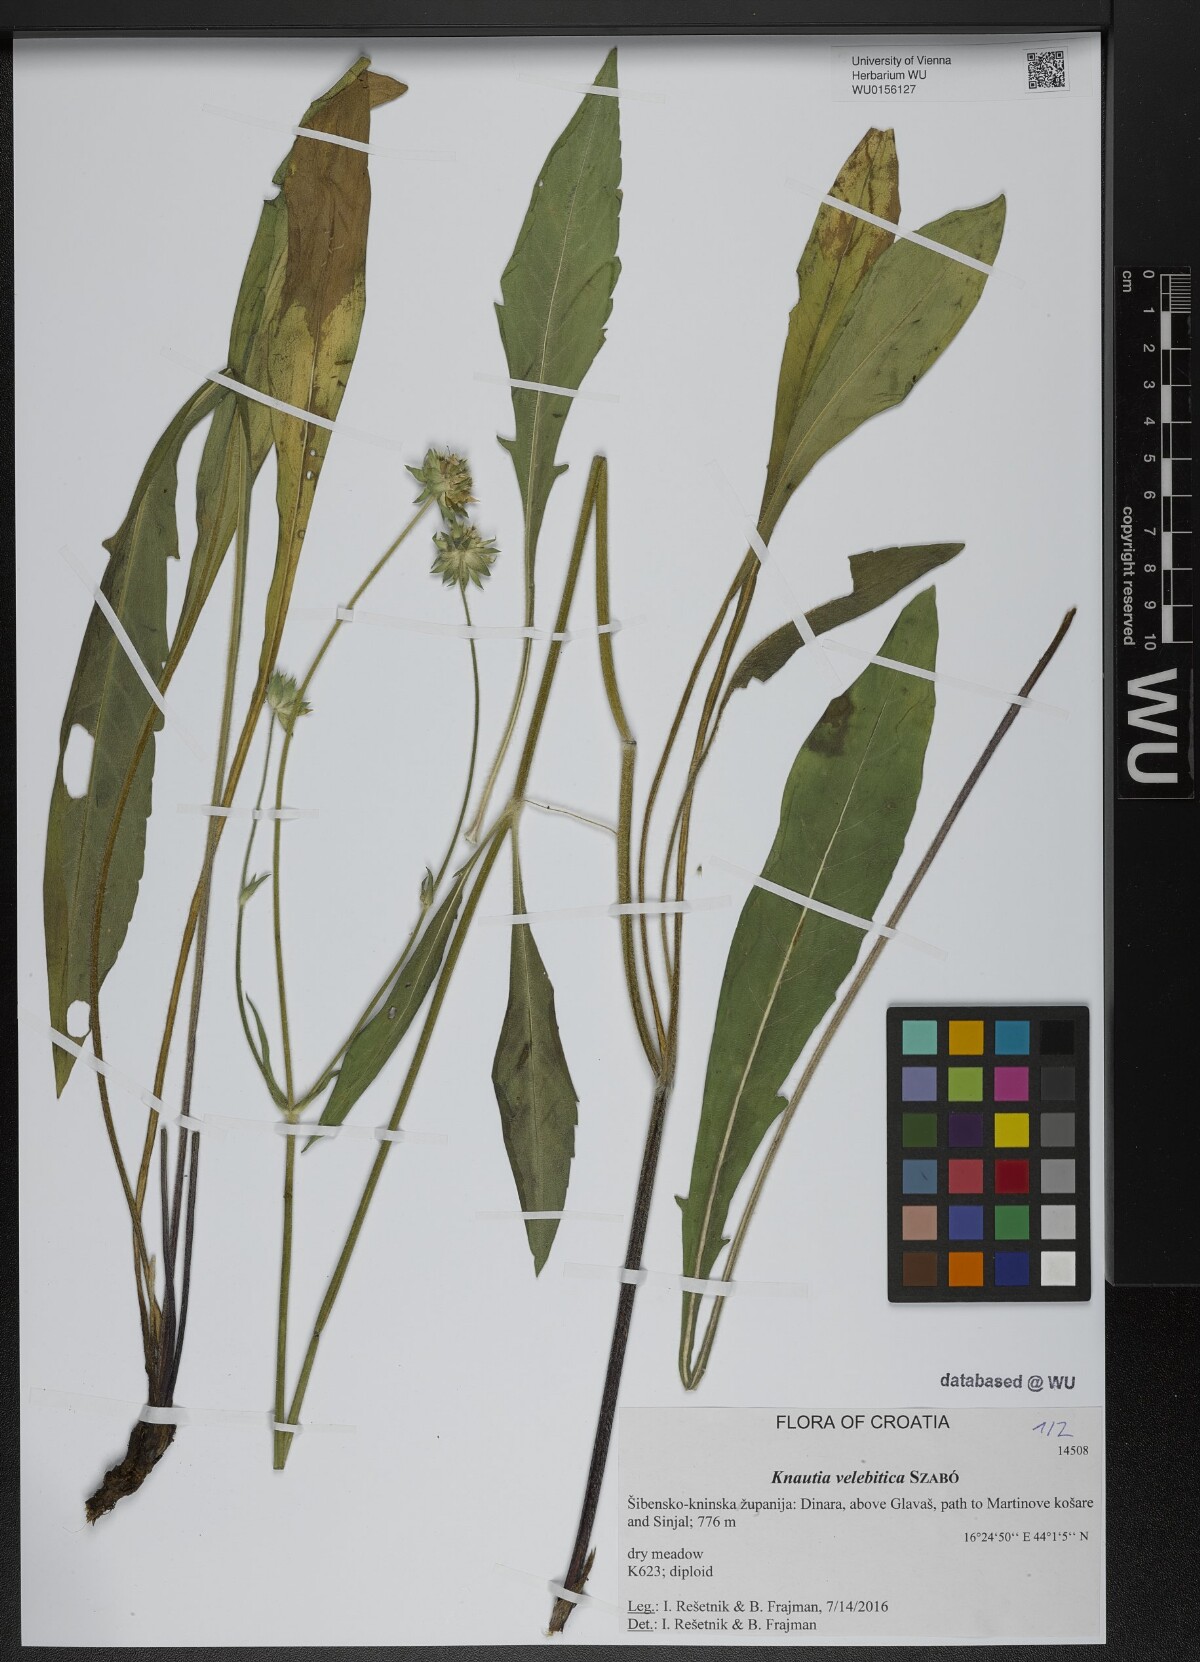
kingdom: Plantae
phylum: Tracheophyta
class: Magnoliopsida
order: Dipsacales
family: Caprifoliaceae
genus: Knautia
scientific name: Knautia velebitica
